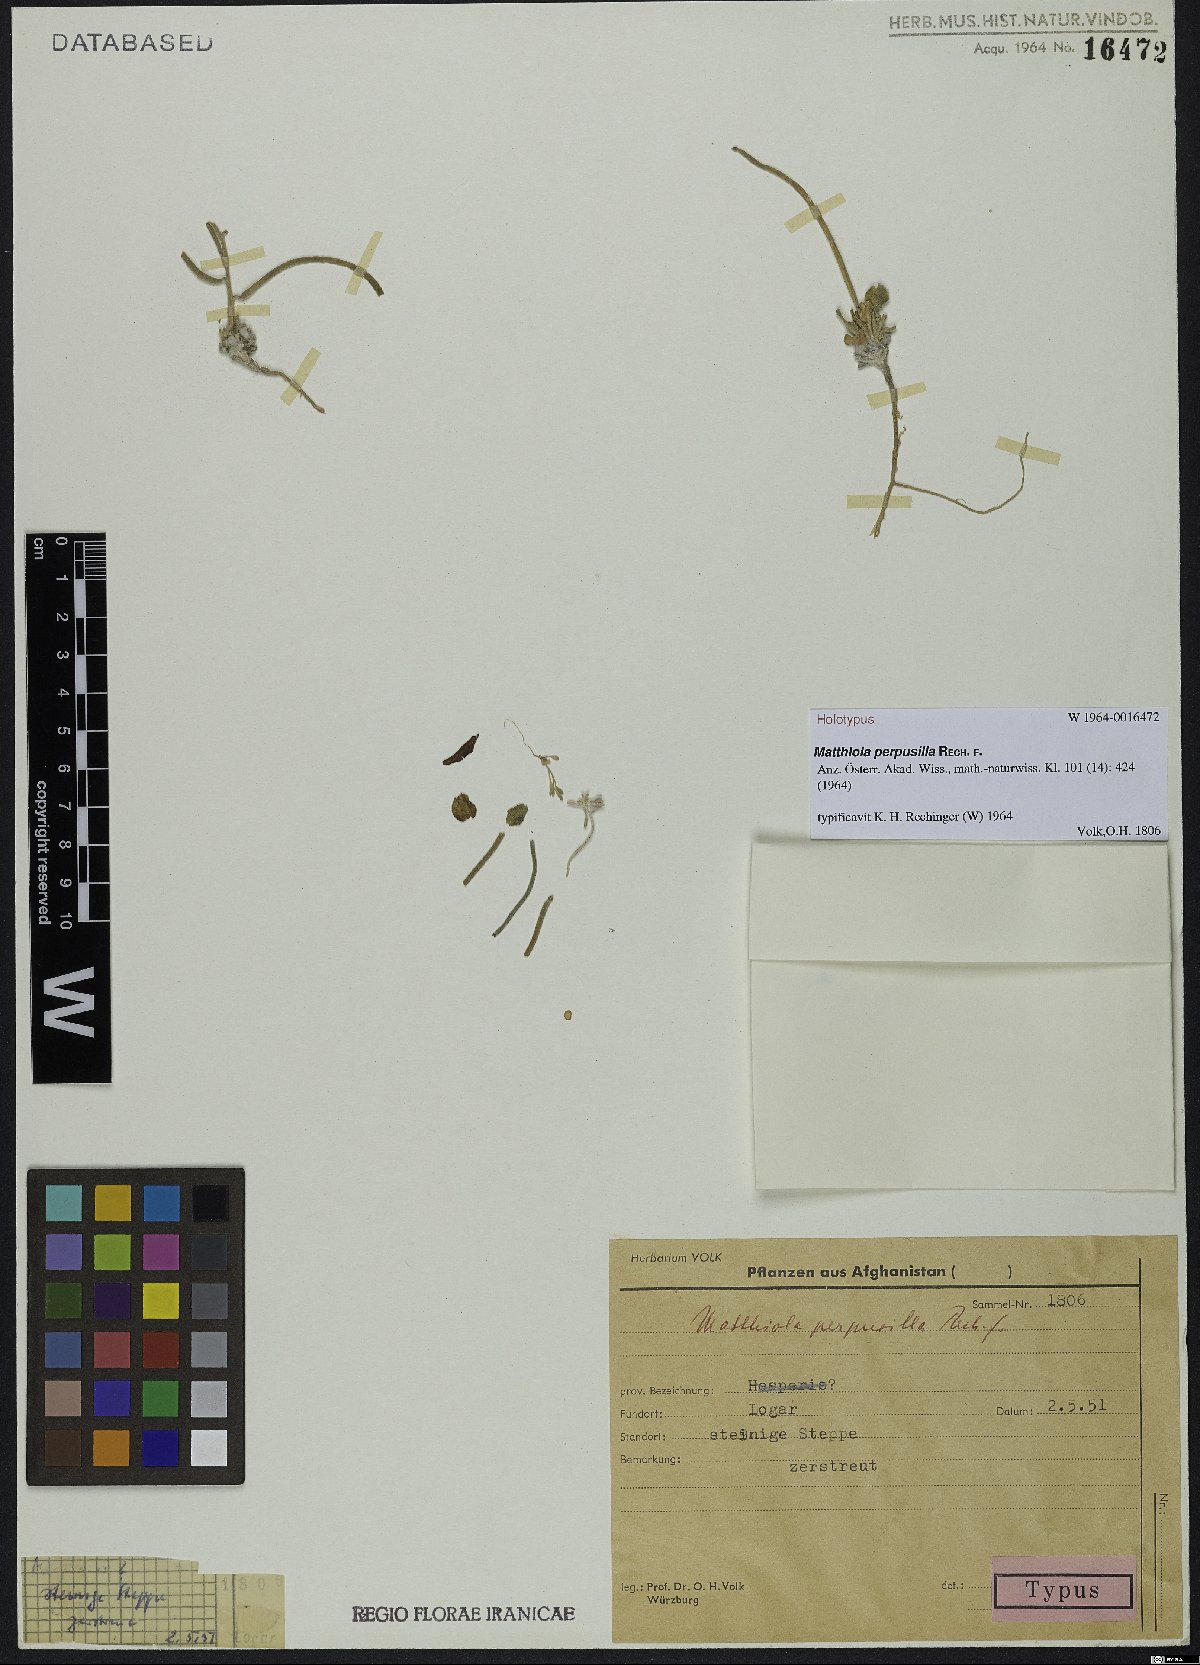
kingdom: Plantae
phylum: Tracheophyta
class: Magnoliopsida
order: Brassicales
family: Brassicaceae
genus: Matthiola
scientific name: Matthiola perpusilla
